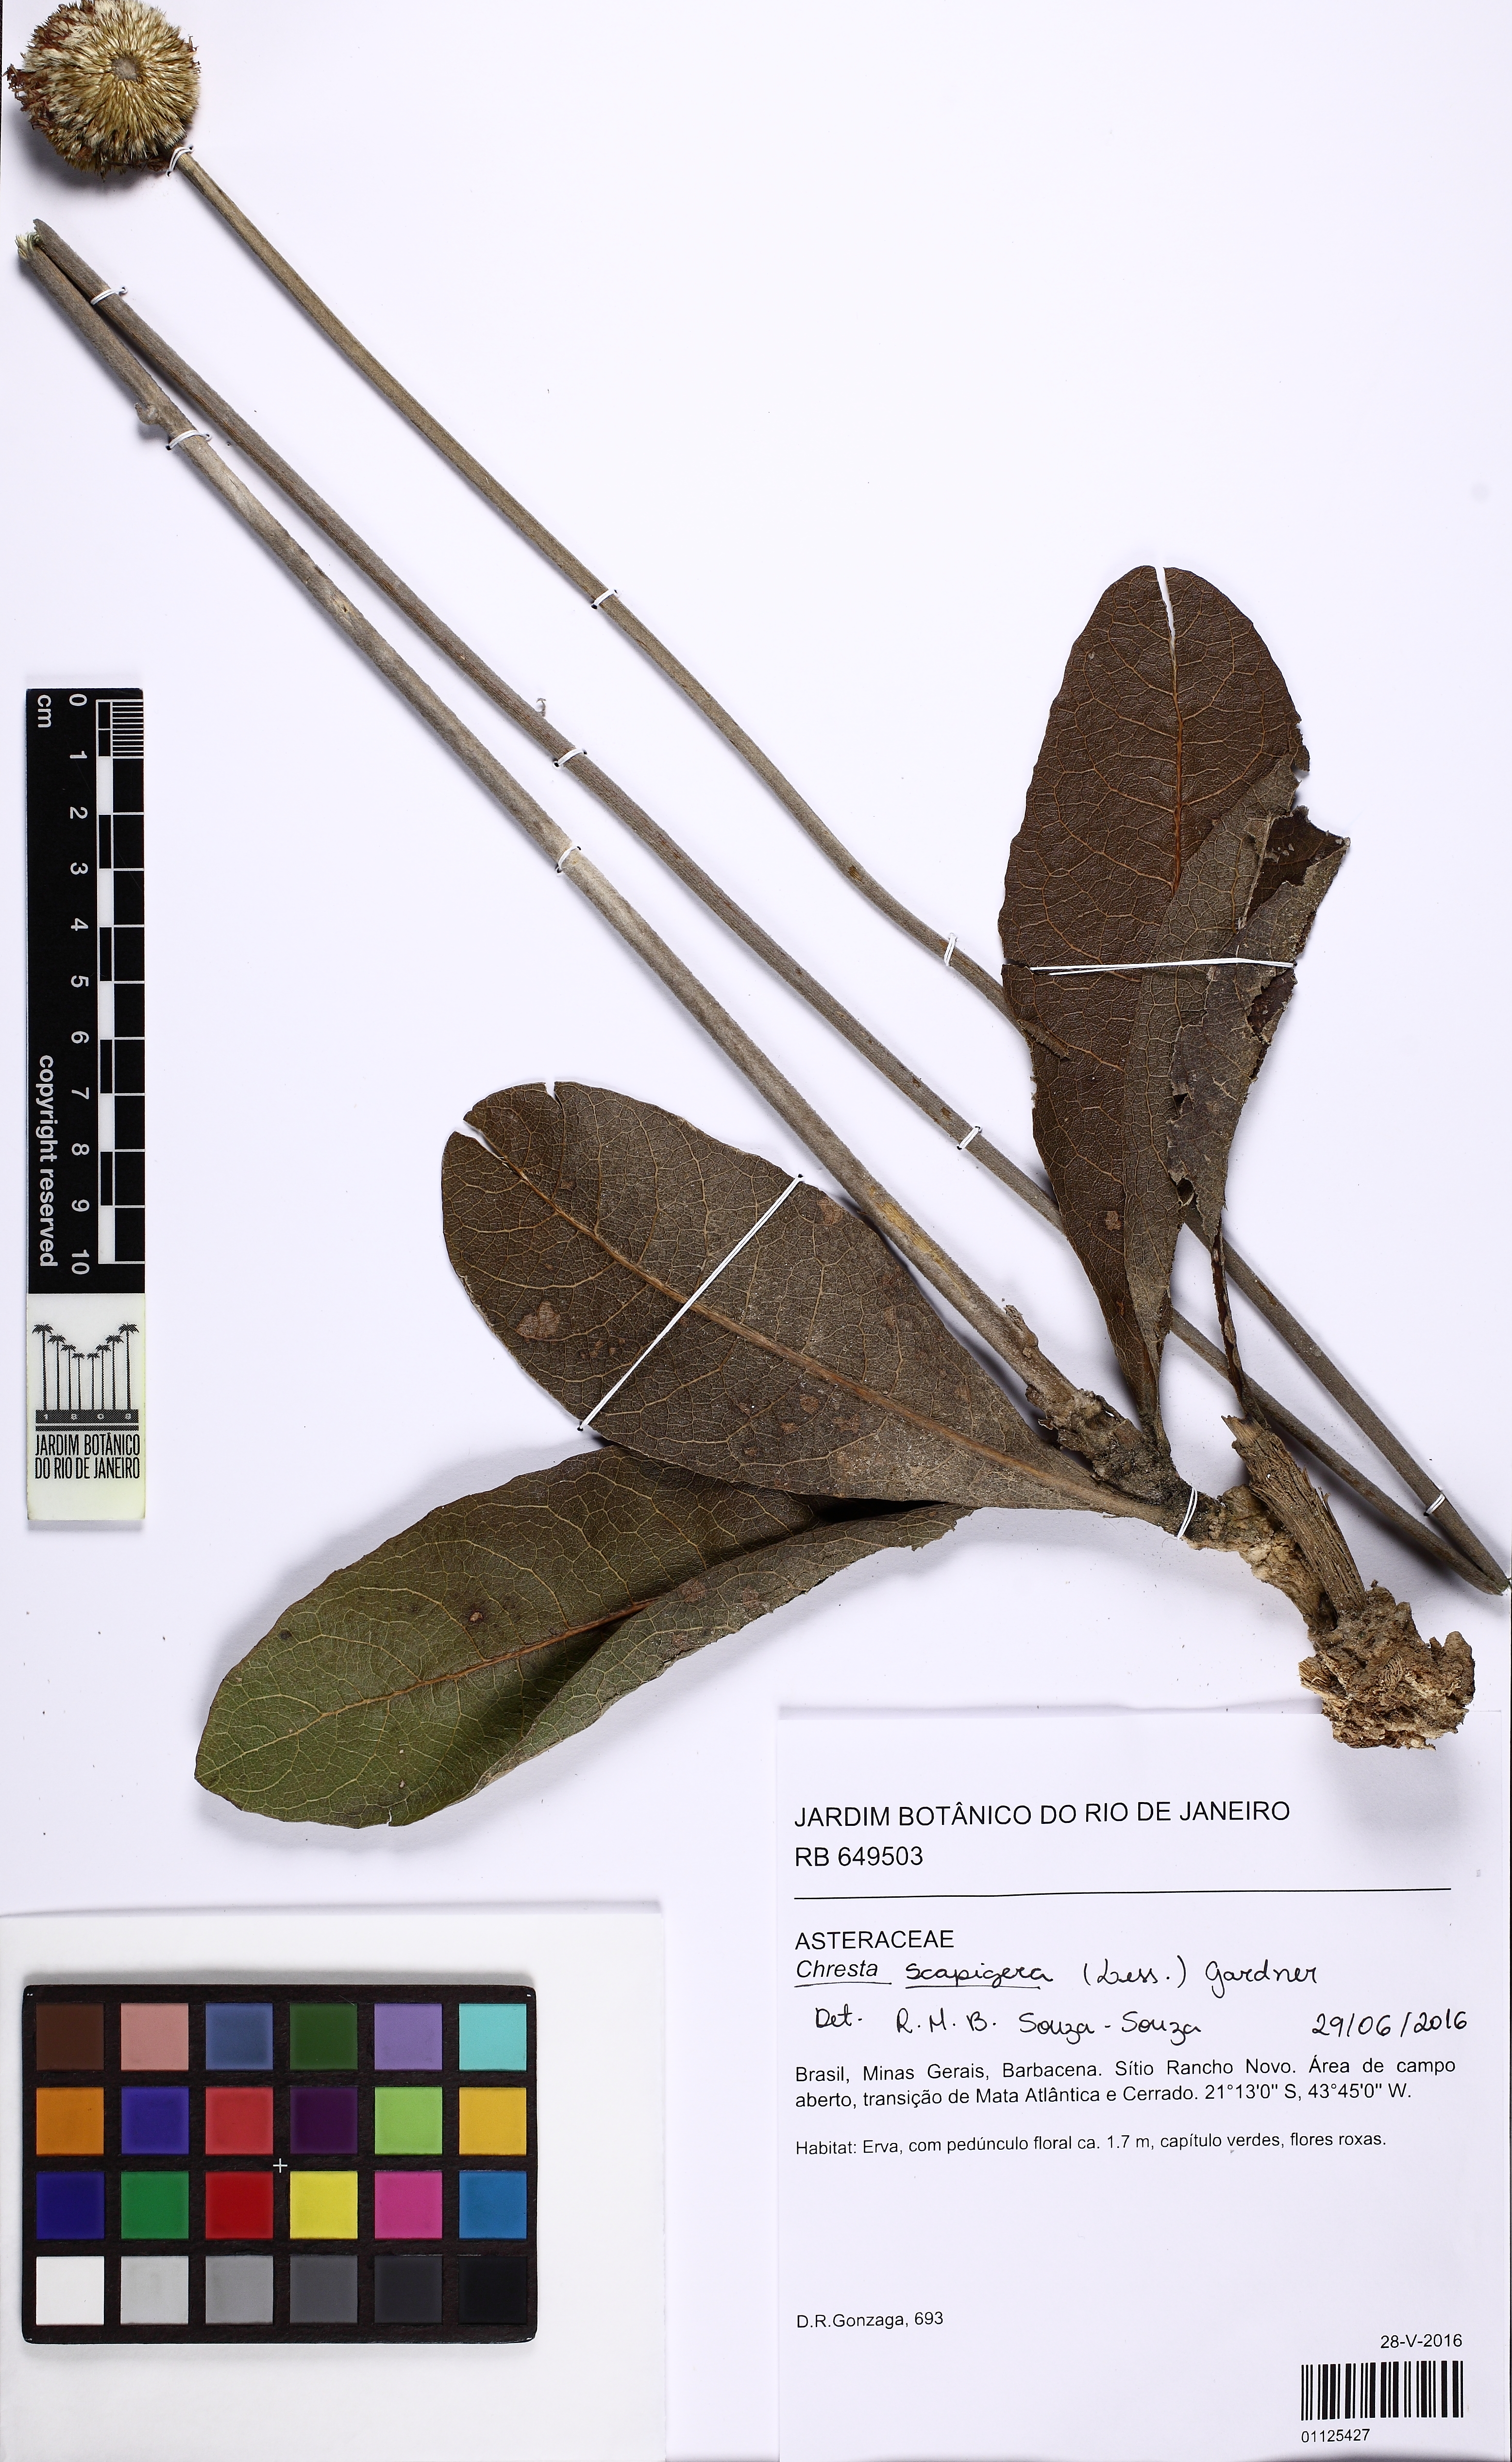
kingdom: Plantae
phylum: Tracheophyta
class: Magnoliopsida
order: Asterales
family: Asteraceae
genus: Chresta
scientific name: Chresta scapigera
